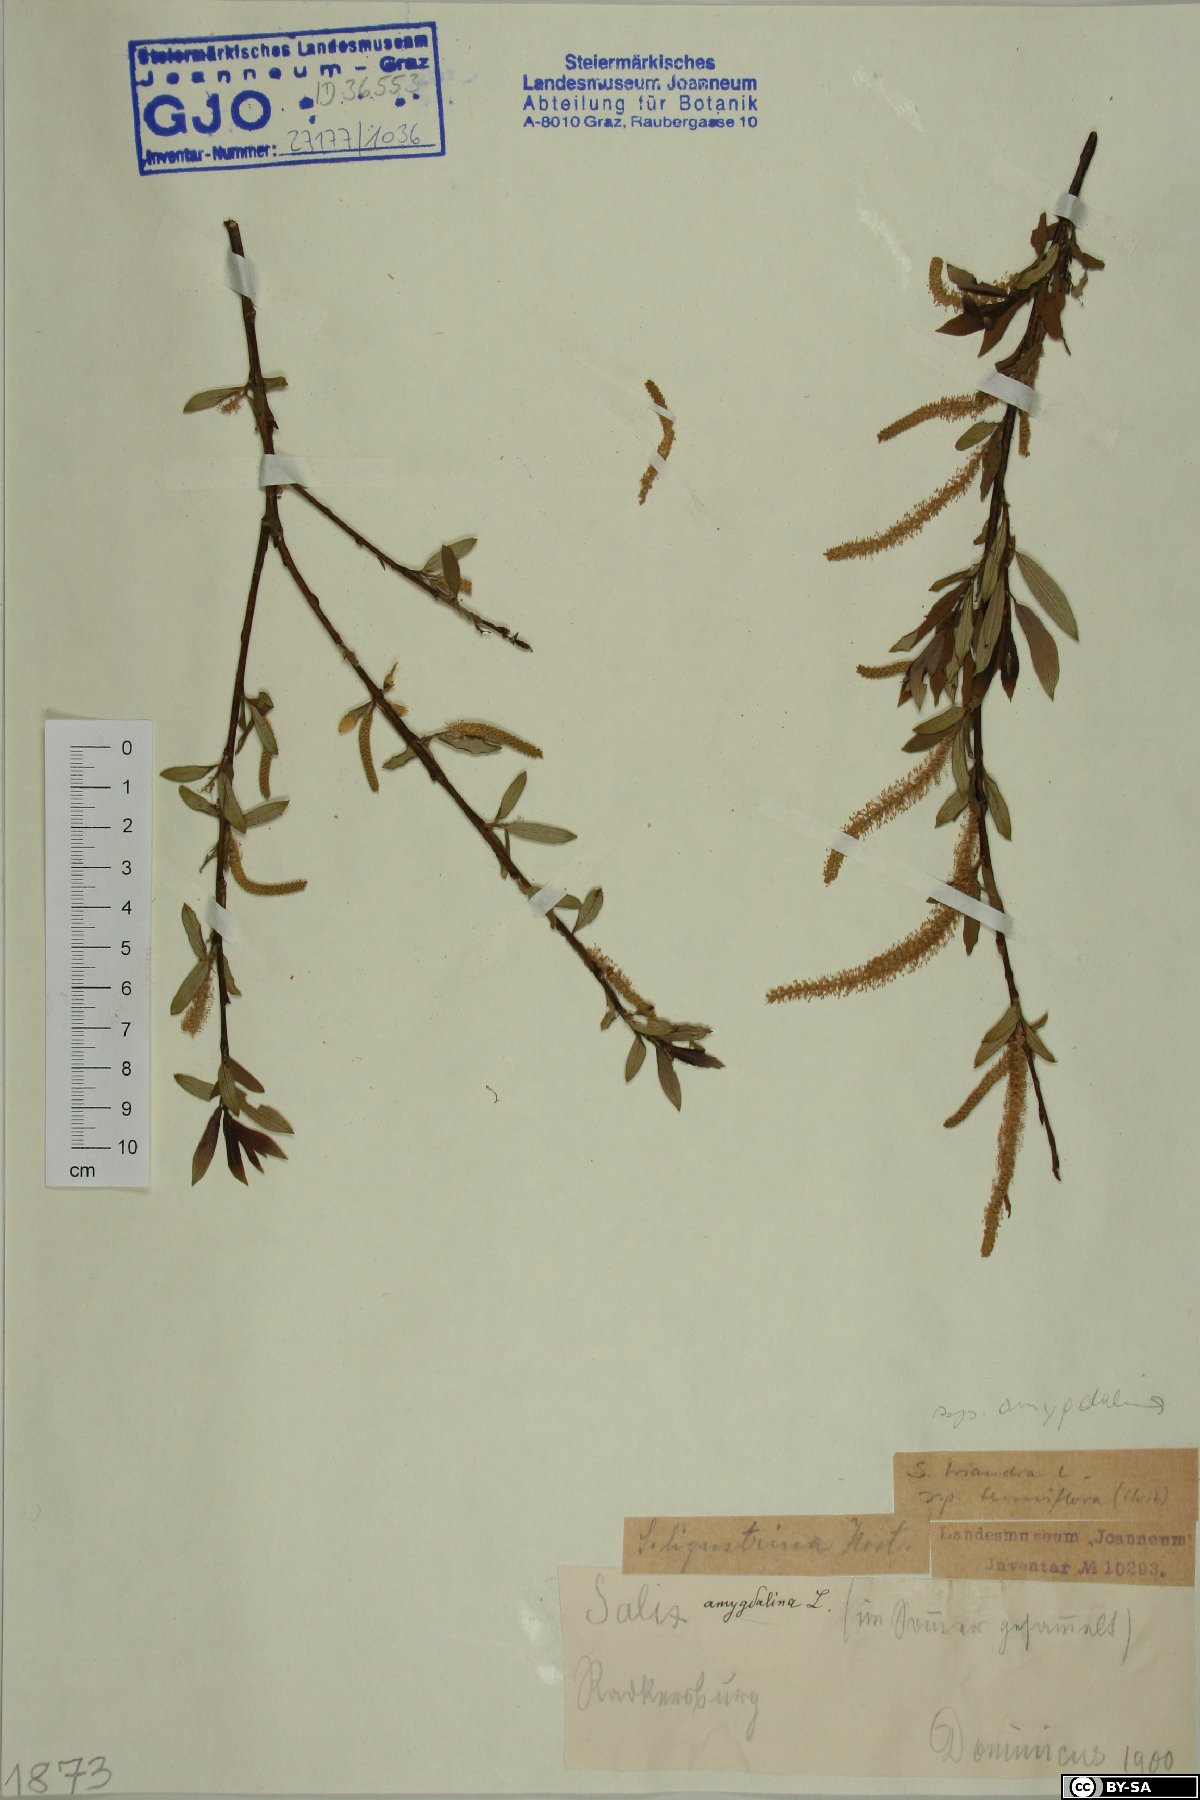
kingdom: Plantae
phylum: Tracheophyta
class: Magnoliopsida
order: Malpighiales
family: Salicaceae
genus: Salix
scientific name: Salix triandra
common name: Almond willow
